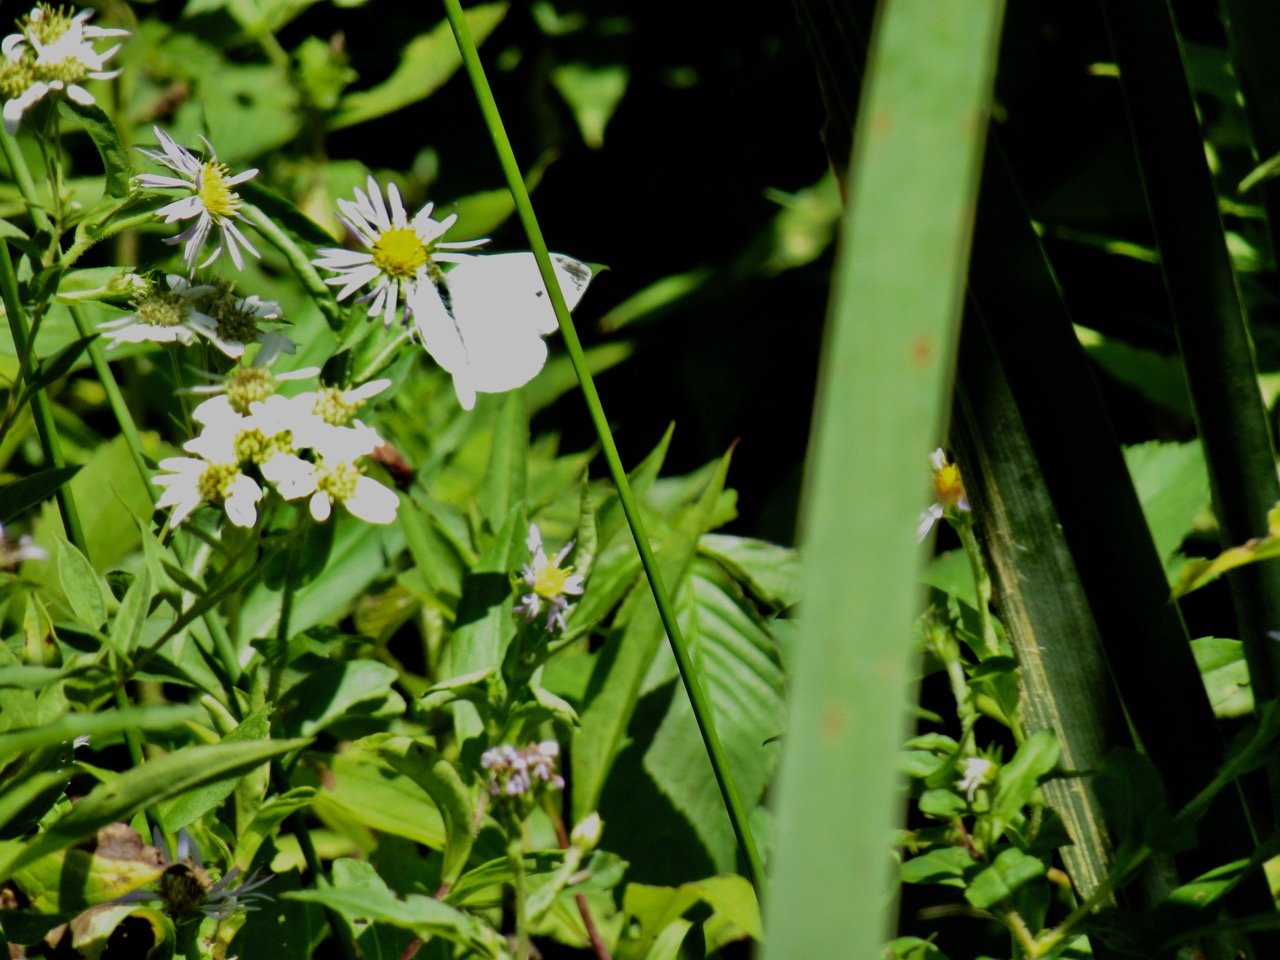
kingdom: Animalia
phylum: Arthropoda
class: Insecta
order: Lepidoptera
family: Pieridae
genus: Pieris
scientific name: Pieris rapae
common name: Cabbage White
